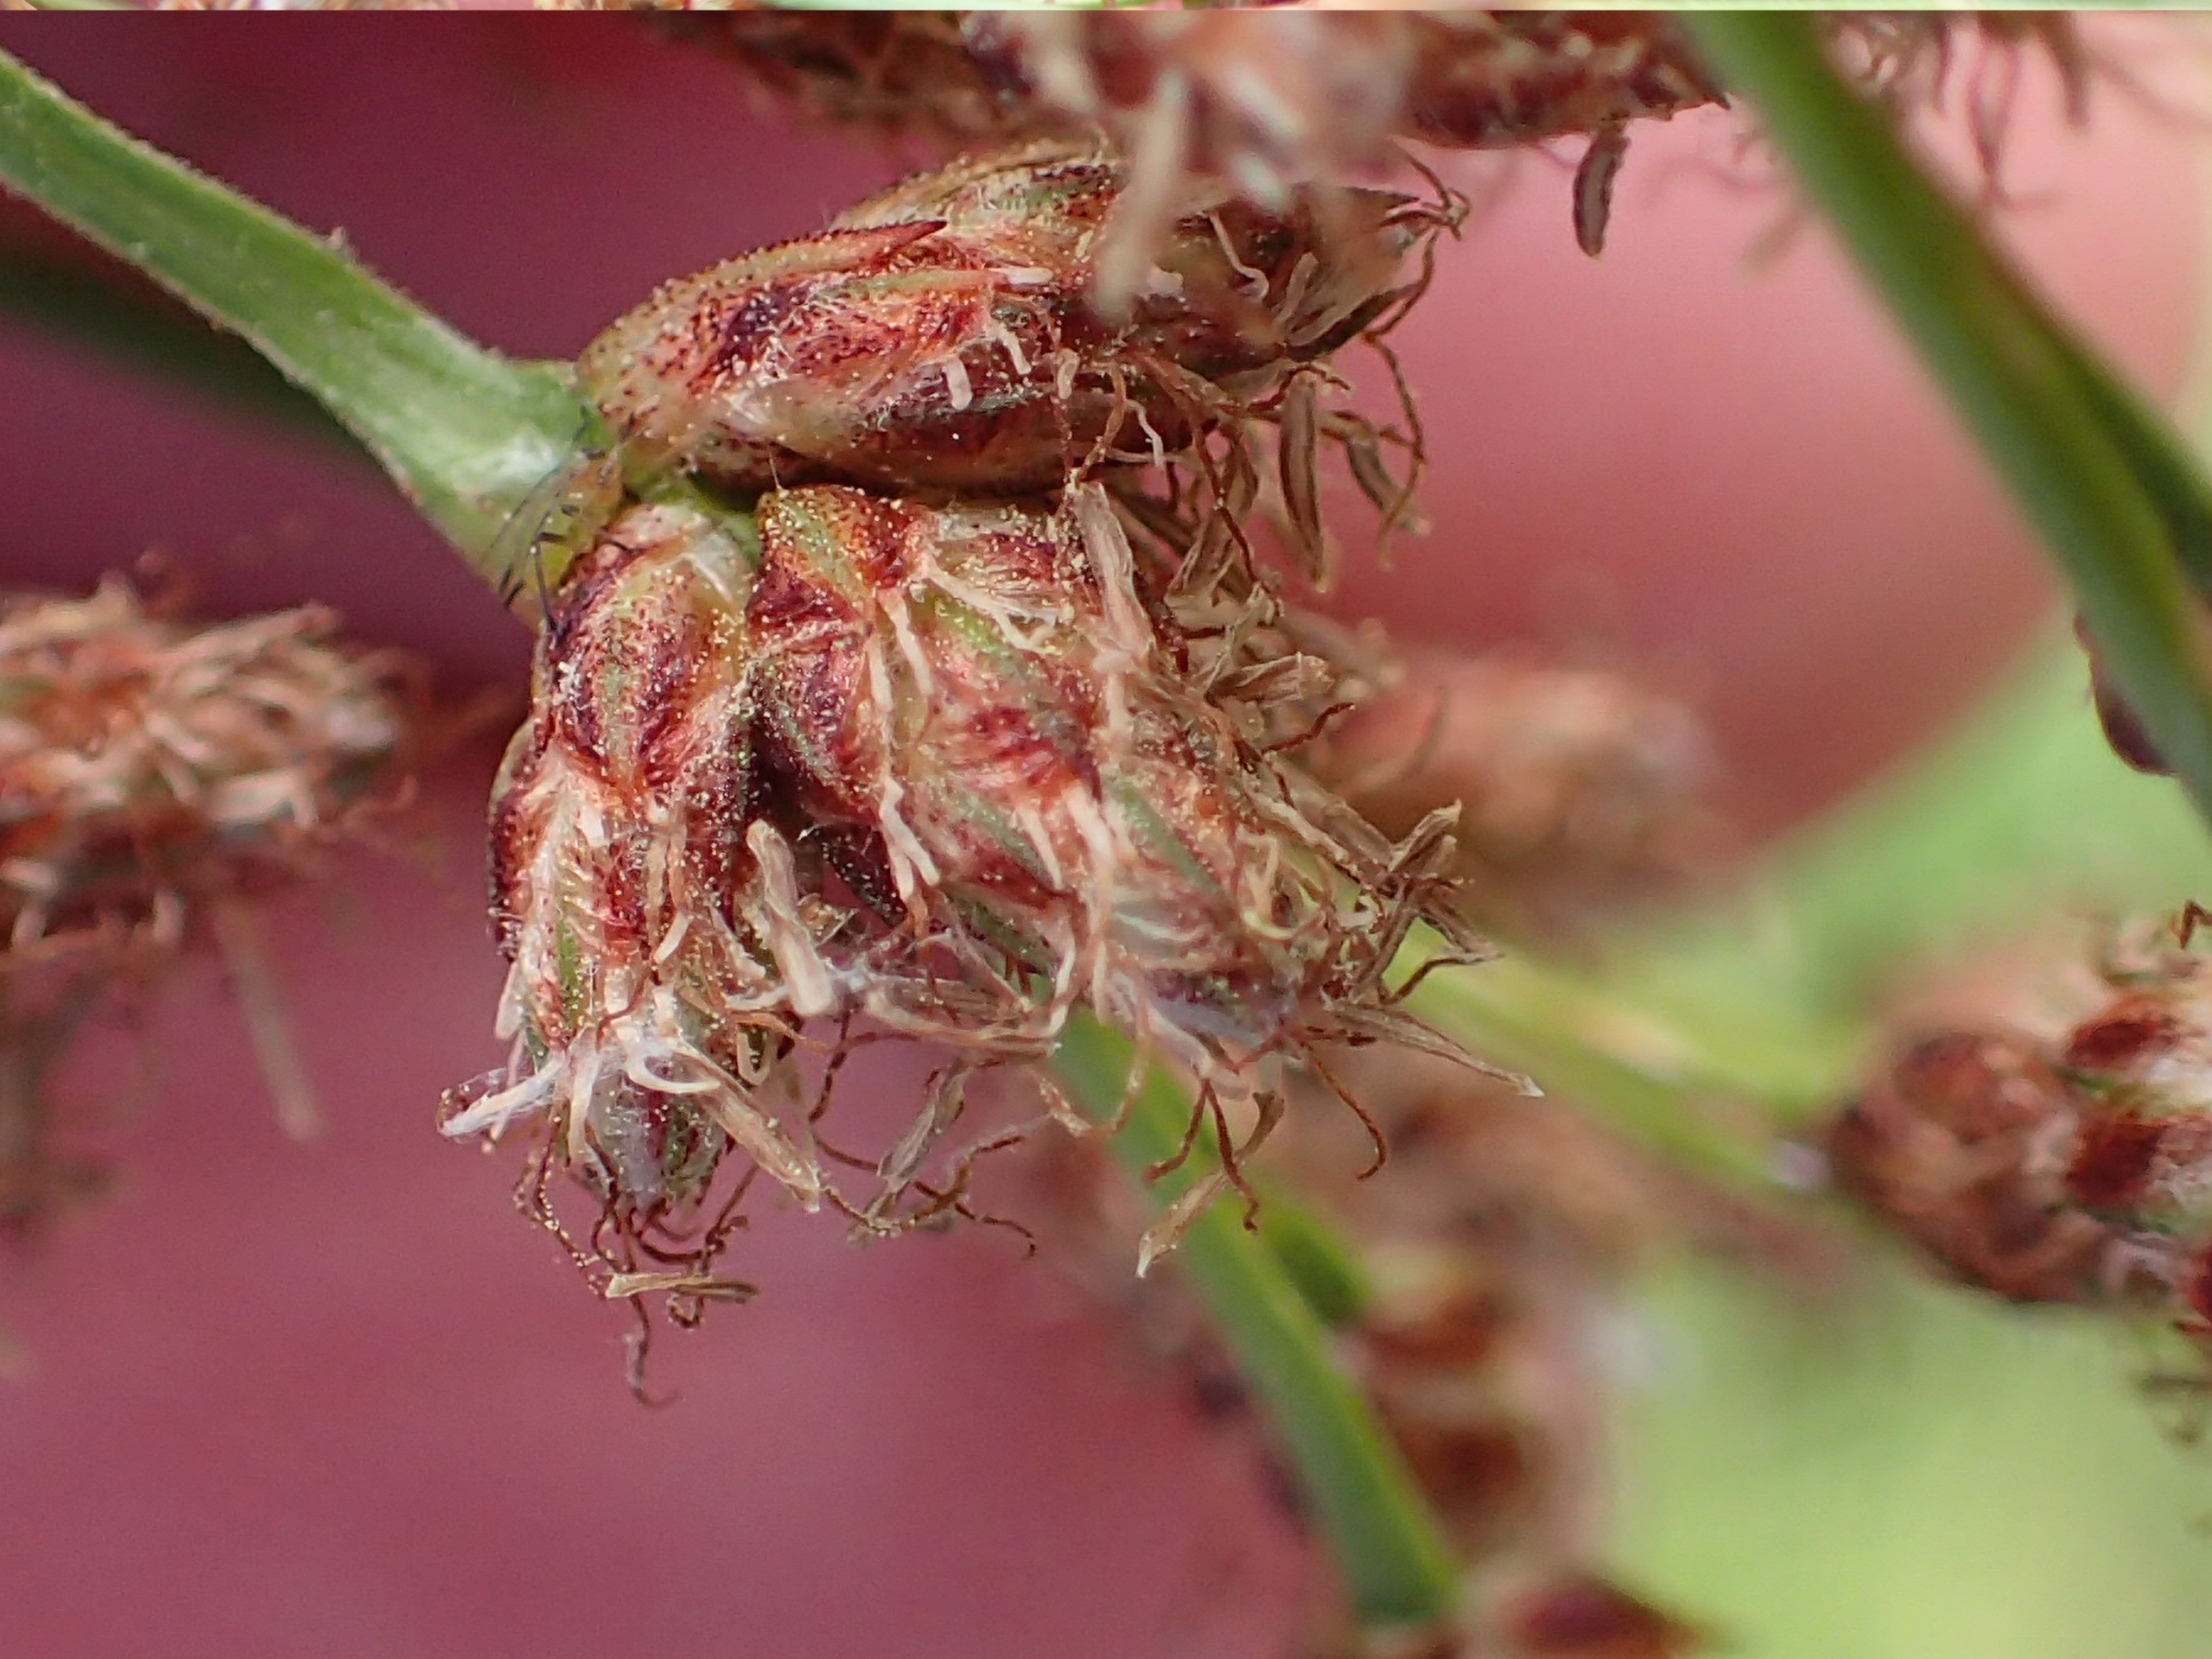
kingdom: Plantae
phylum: Tracheophyta
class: Liliopsida
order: Poales
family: Cyperaceae
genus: Schoenoplectus
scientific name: Schoenoplectus tabernaemontani
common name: Blågrøn kogleaks
